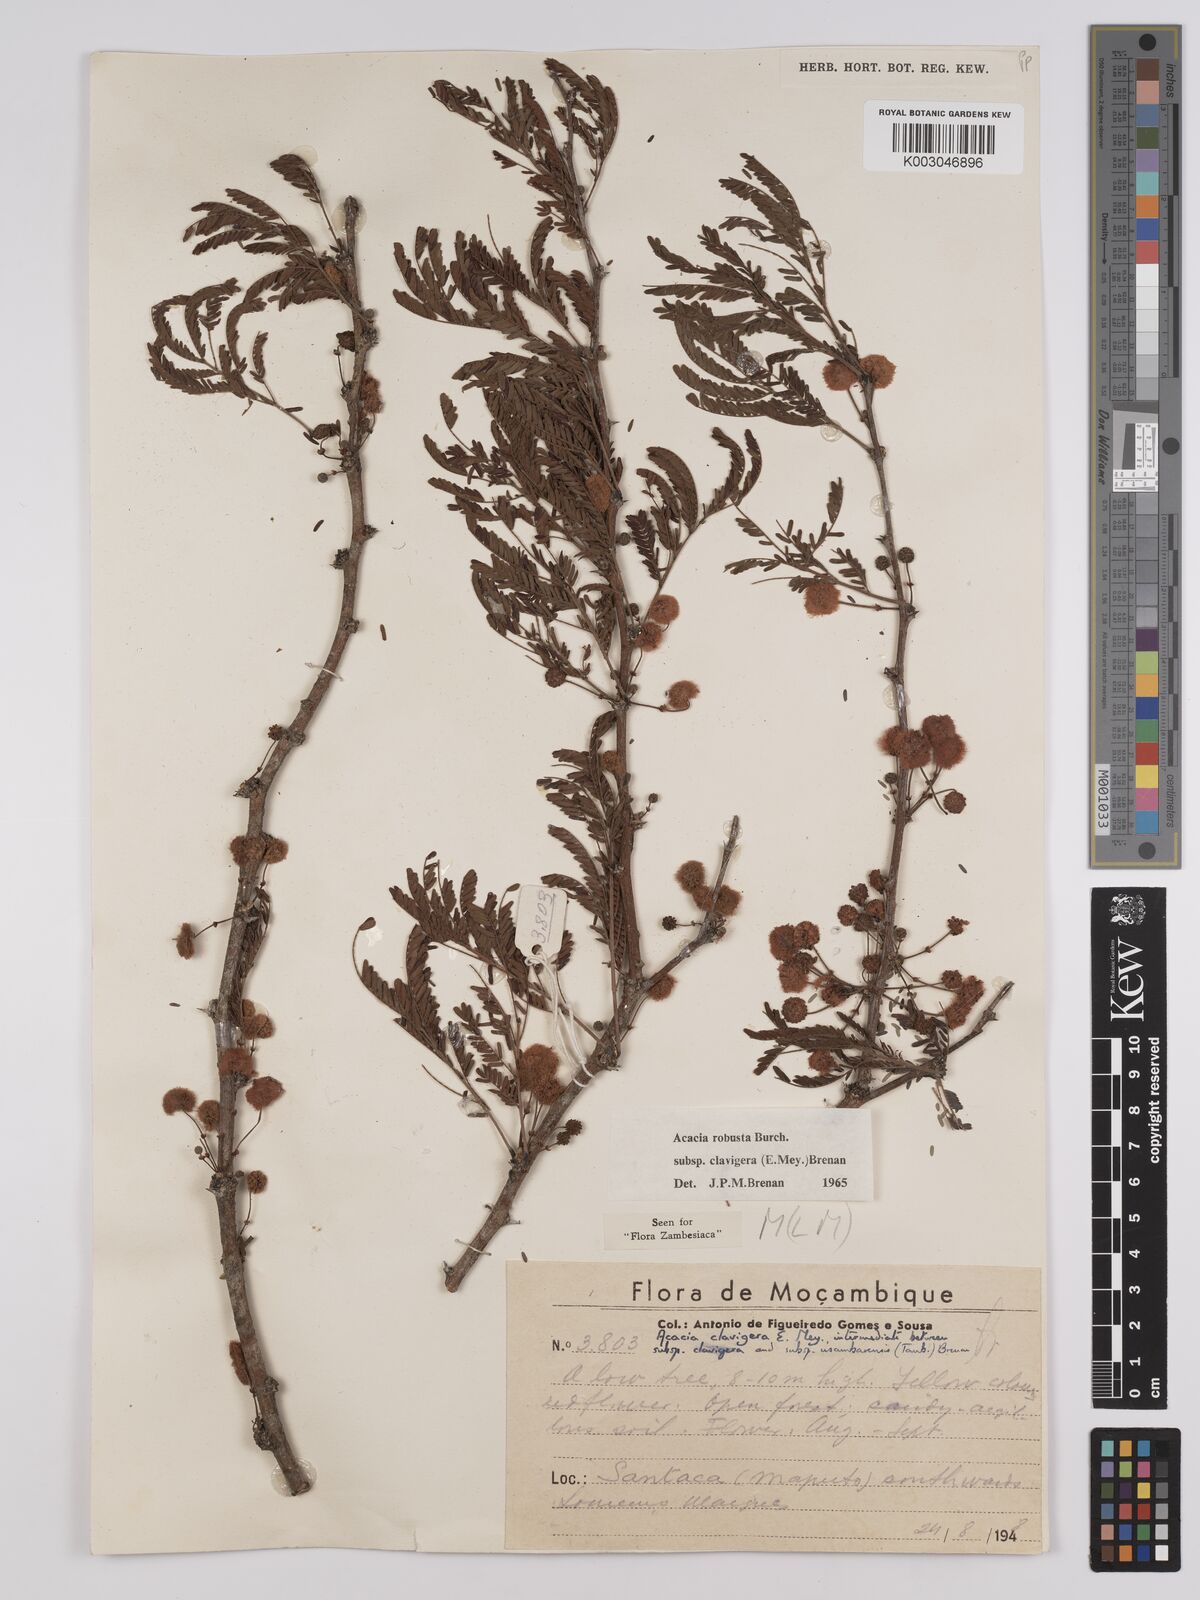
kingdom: Plantae
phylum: Tracheophyta
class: Magnoliopsida
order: Fabales
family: Fabaceae
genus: Vachellia
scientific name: Vachellia robusta
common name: Ankle thorn
